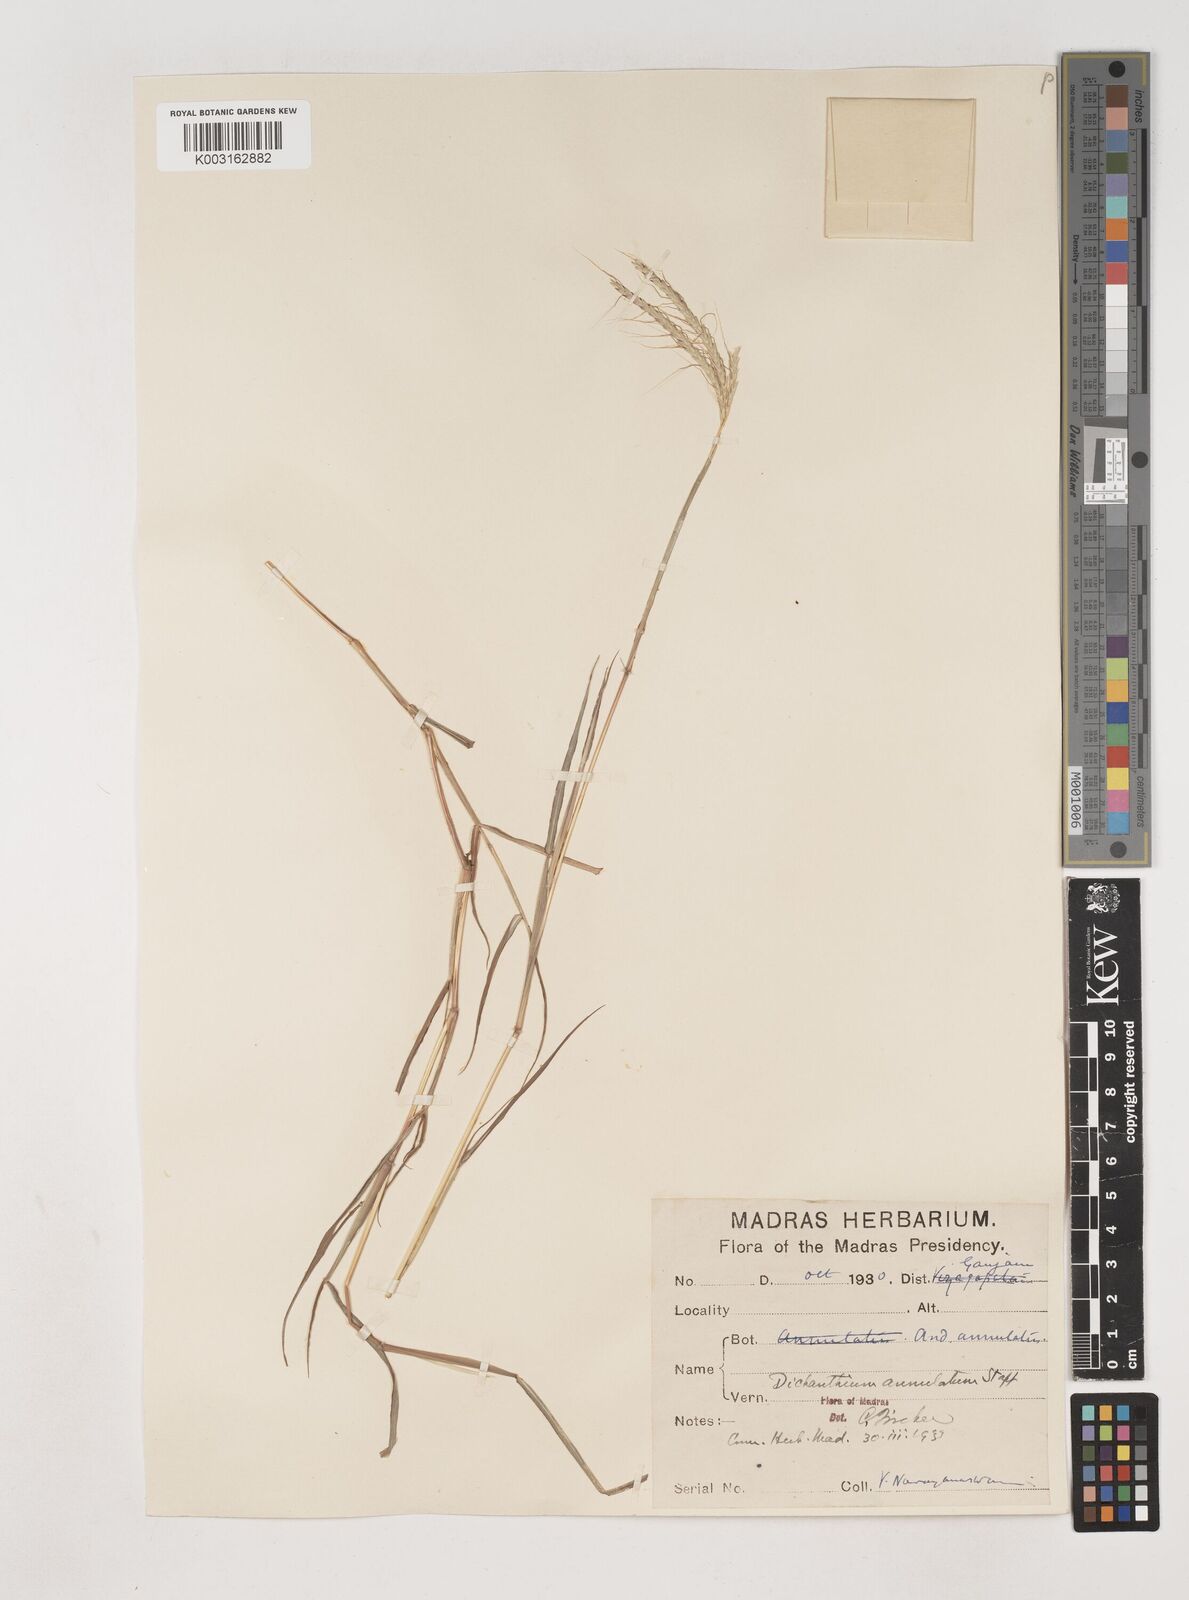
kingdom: Plantae
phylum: Tracheophyta
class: Liliopsida
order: Poales
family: Poaceae
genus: Dichanthium
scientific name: Dichanthium annulatum
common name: Kleberg's bluestem
